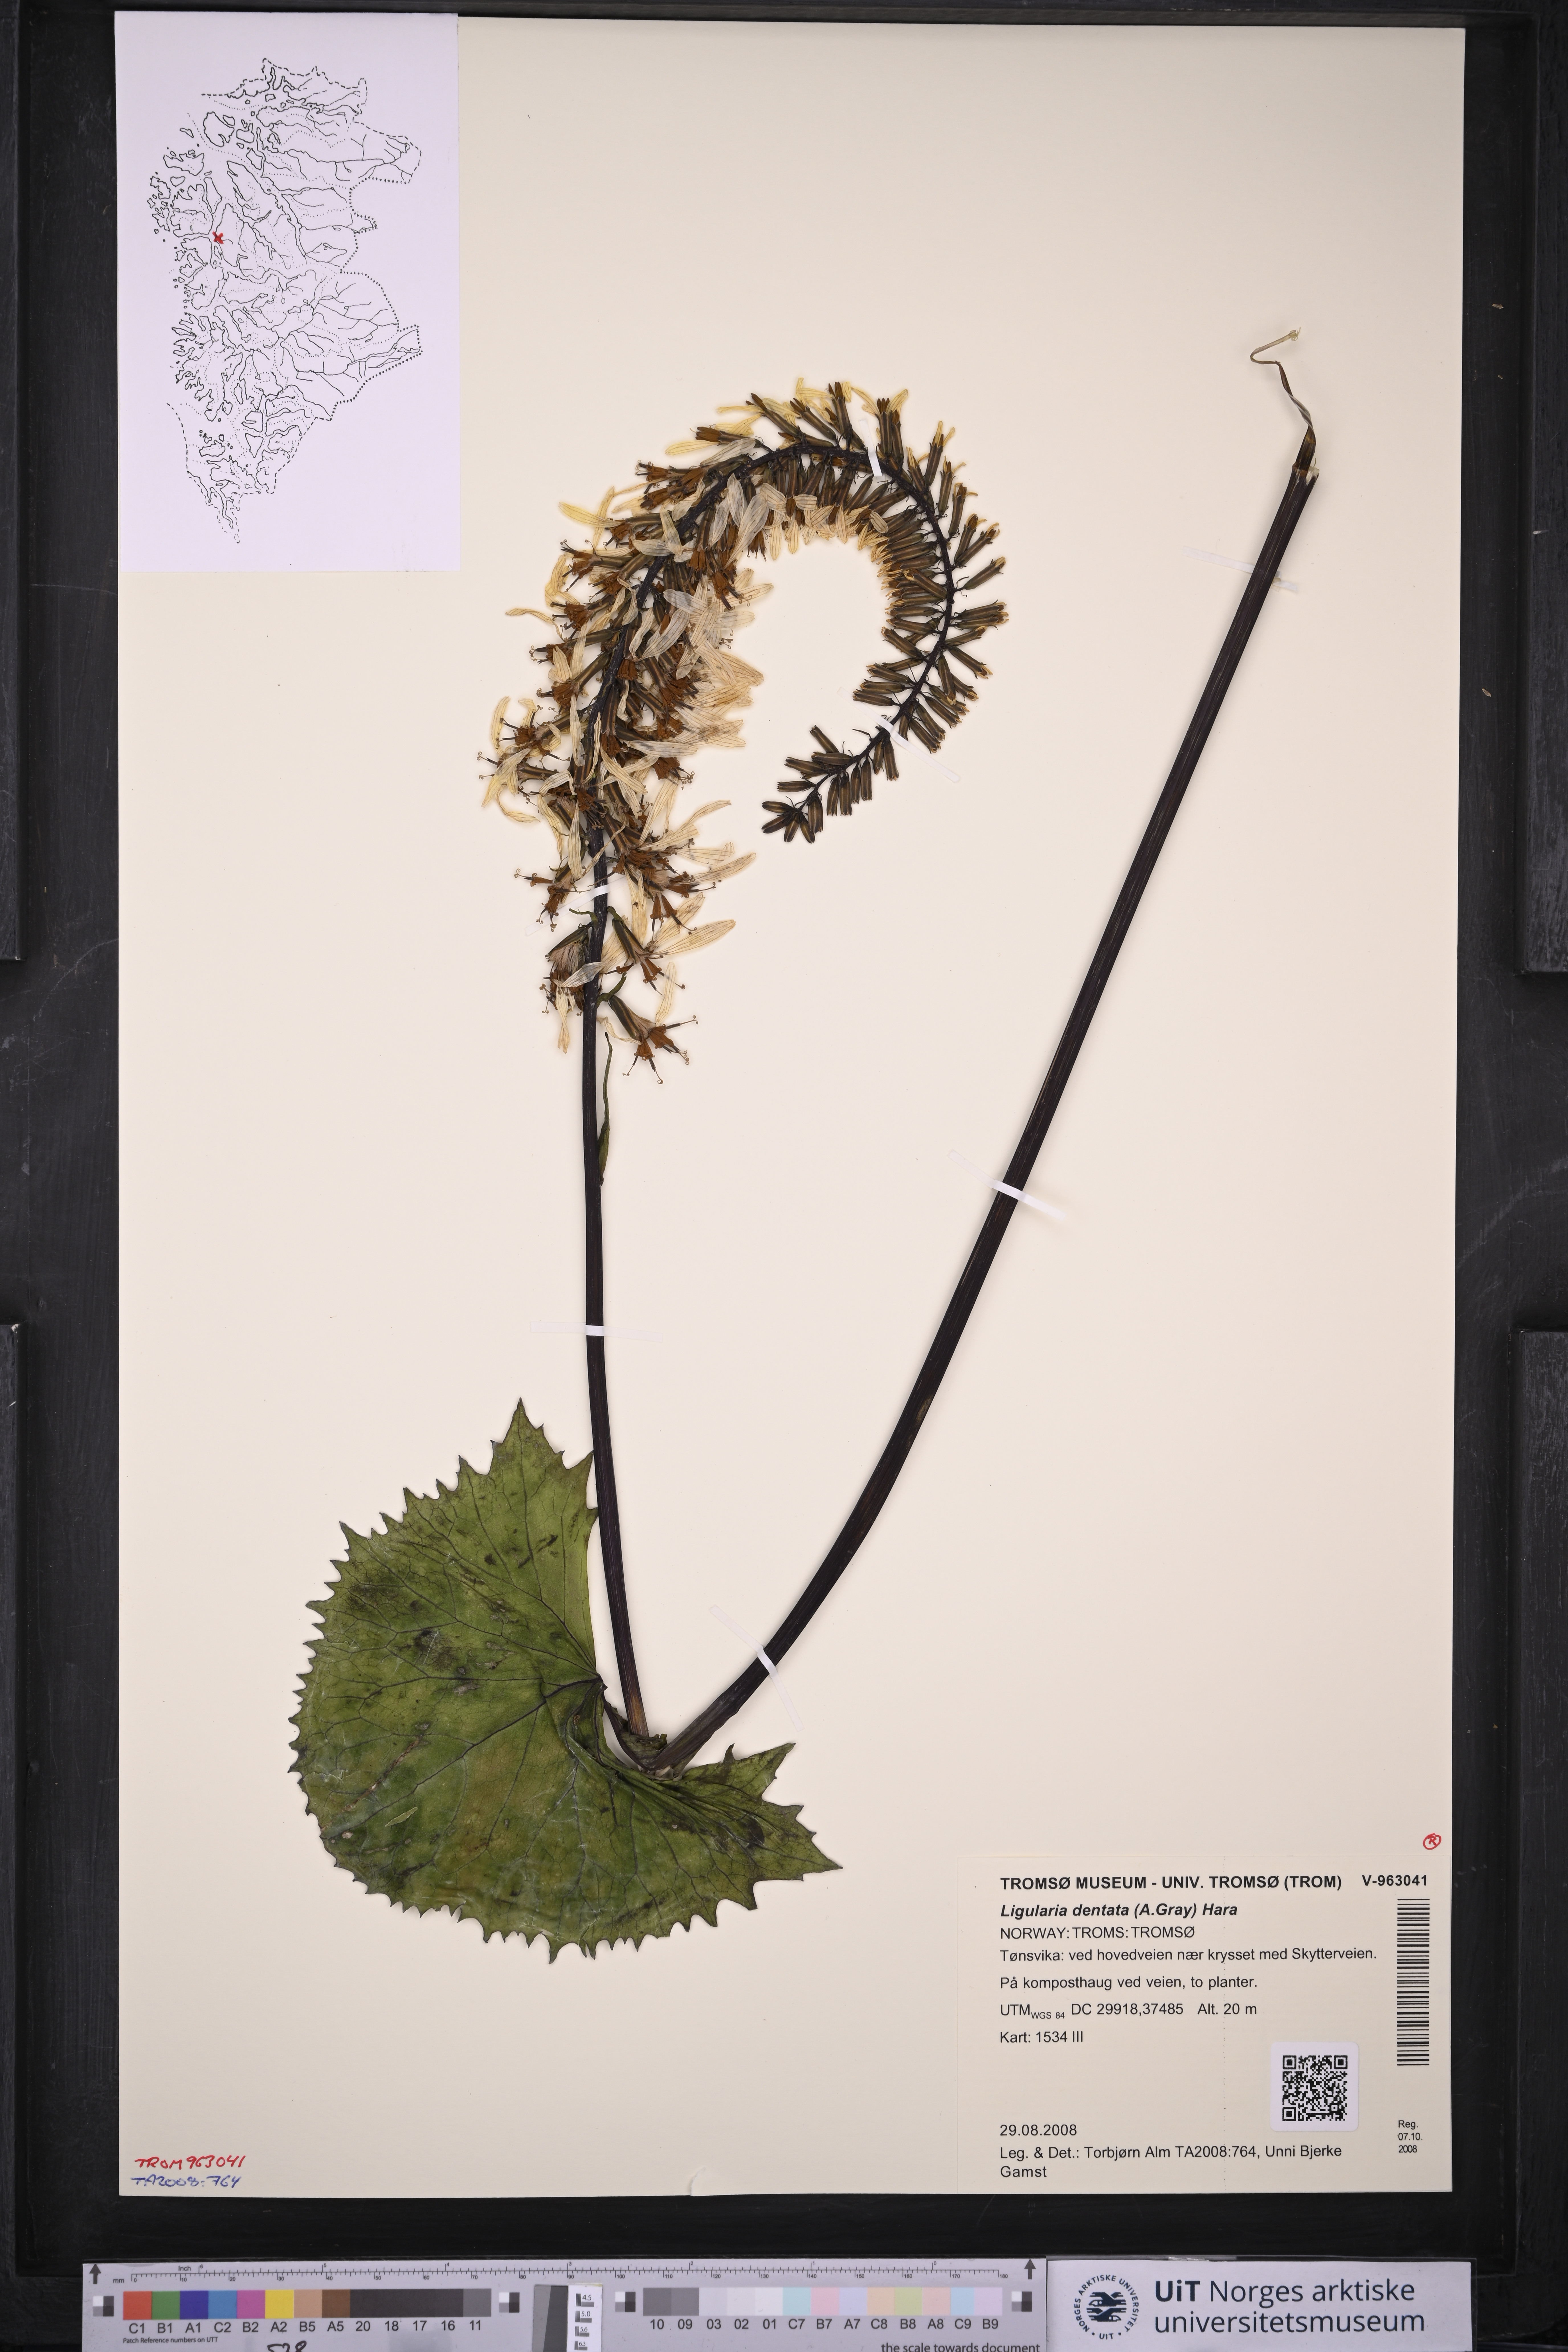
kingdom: Plantae
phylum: Tracheophyta
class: Magnoliopsida
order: Asterales
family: Asteraceae
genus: Ligularia
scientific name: Ligularia dentata
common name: Leopardplant
